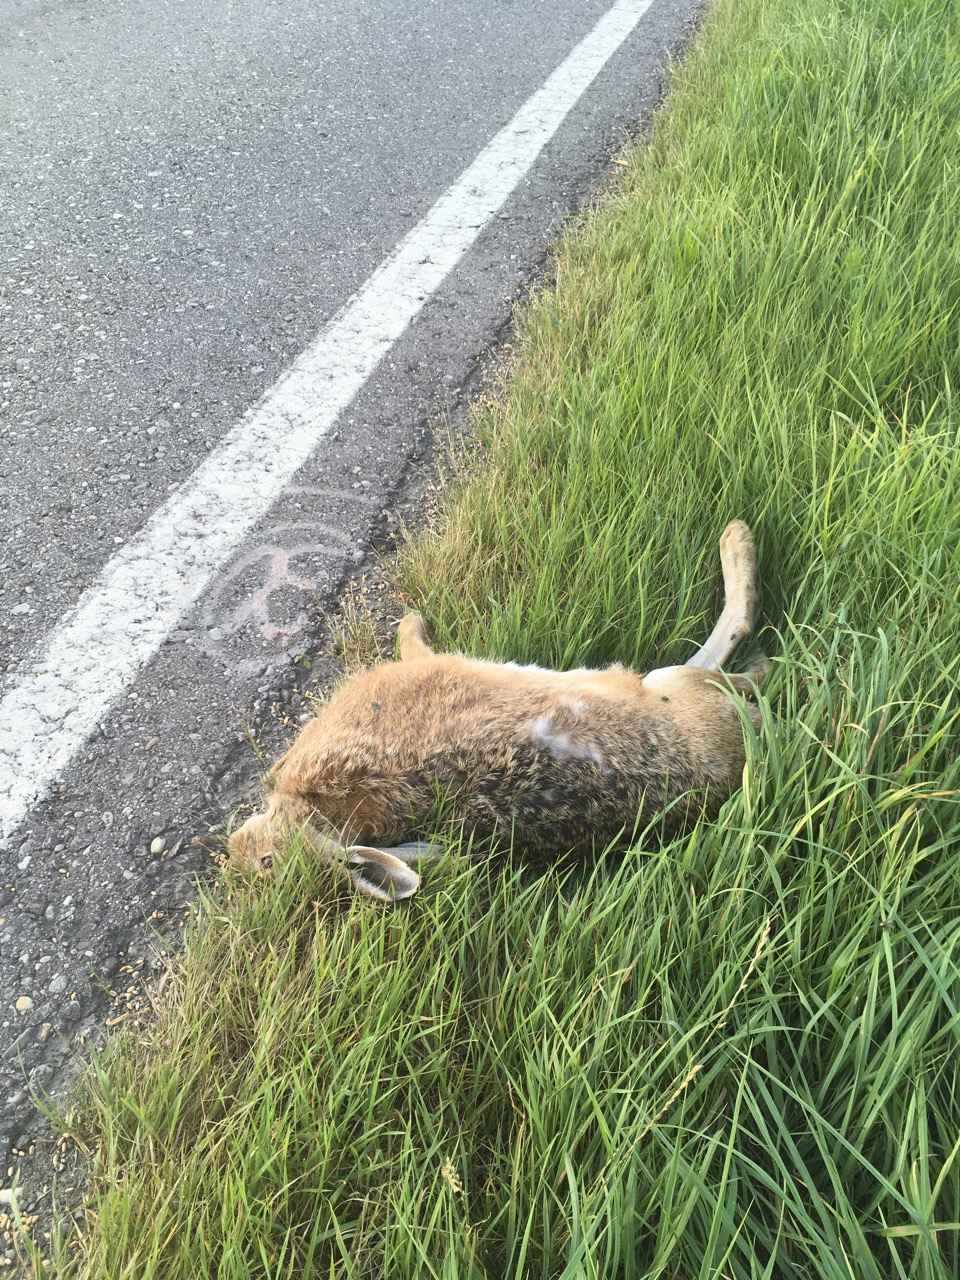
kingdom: Animalia
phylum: Chordata
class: Mammalia
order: Lagomorpha
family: Leporidae
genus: Lepus
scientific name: Lepus europaeus
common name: European hare
